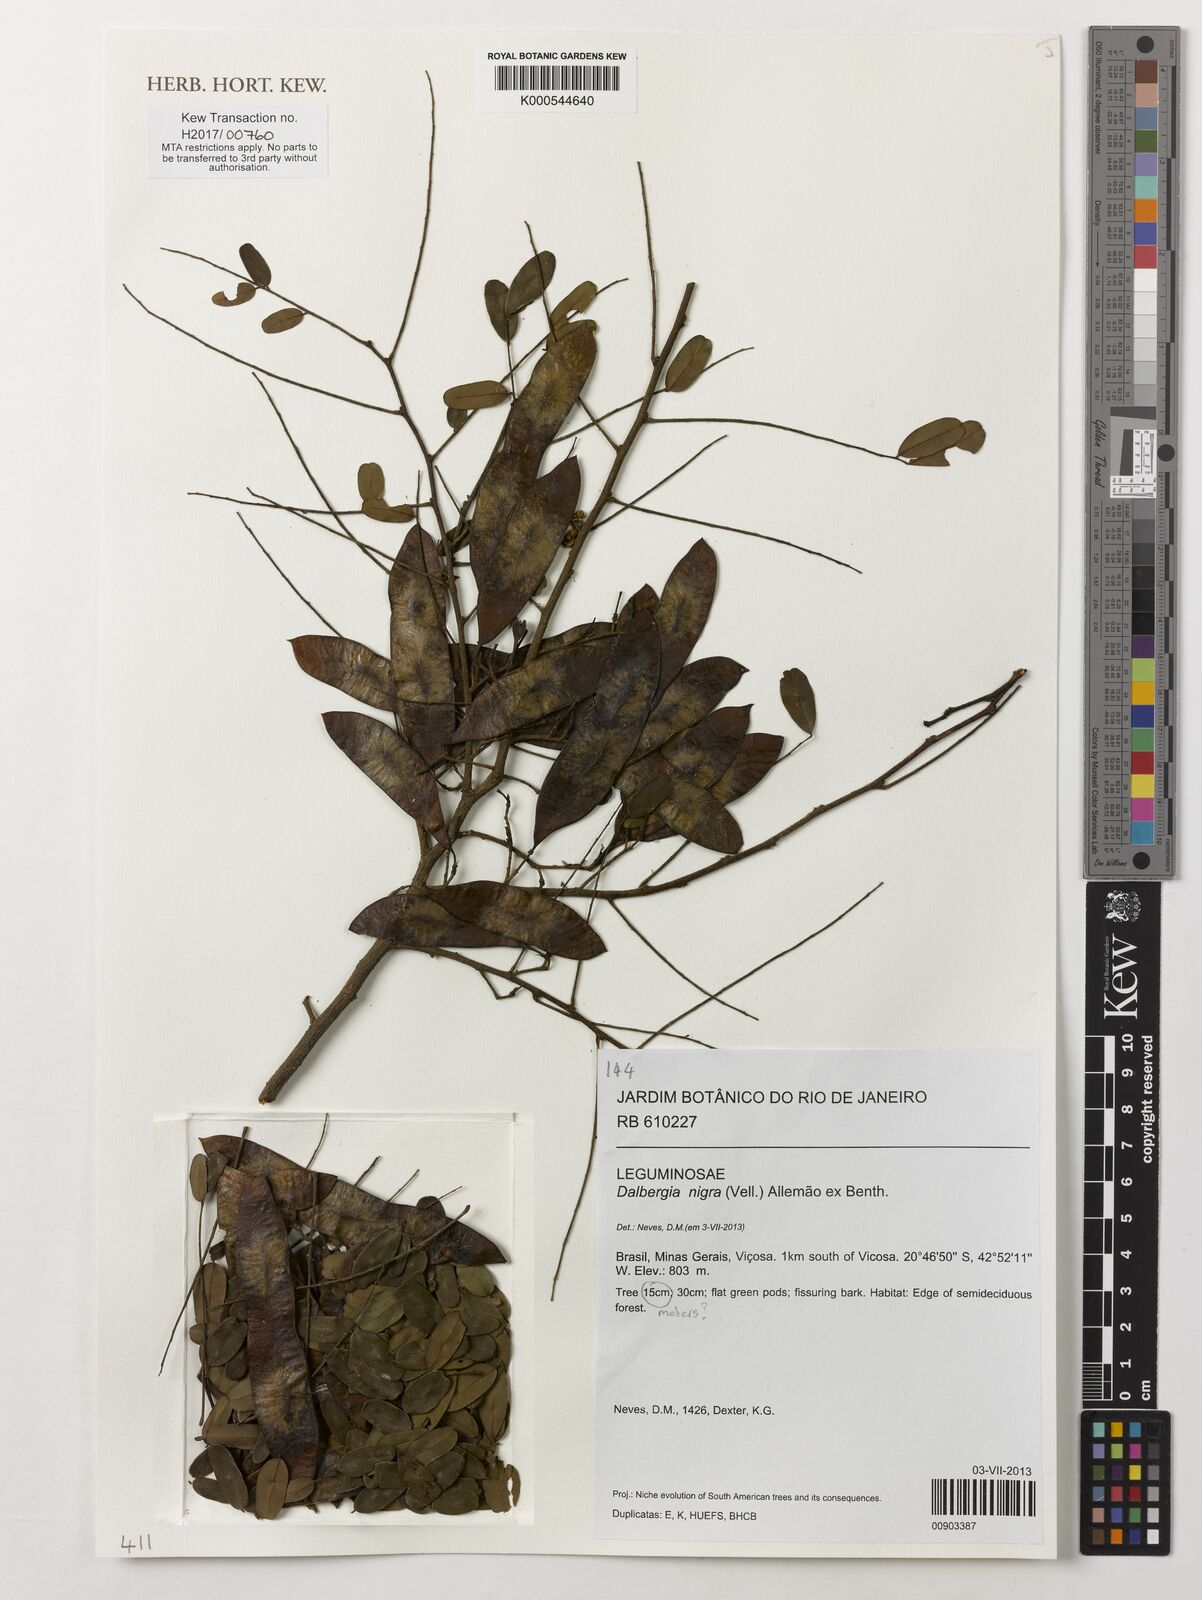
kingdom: Plantae
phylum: Tracheophyta
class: Magnoliopsida
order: Fabales
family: Fabaceae
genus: Dalbergia
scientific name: Dalbergia nigra
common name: Bahia rosewood
